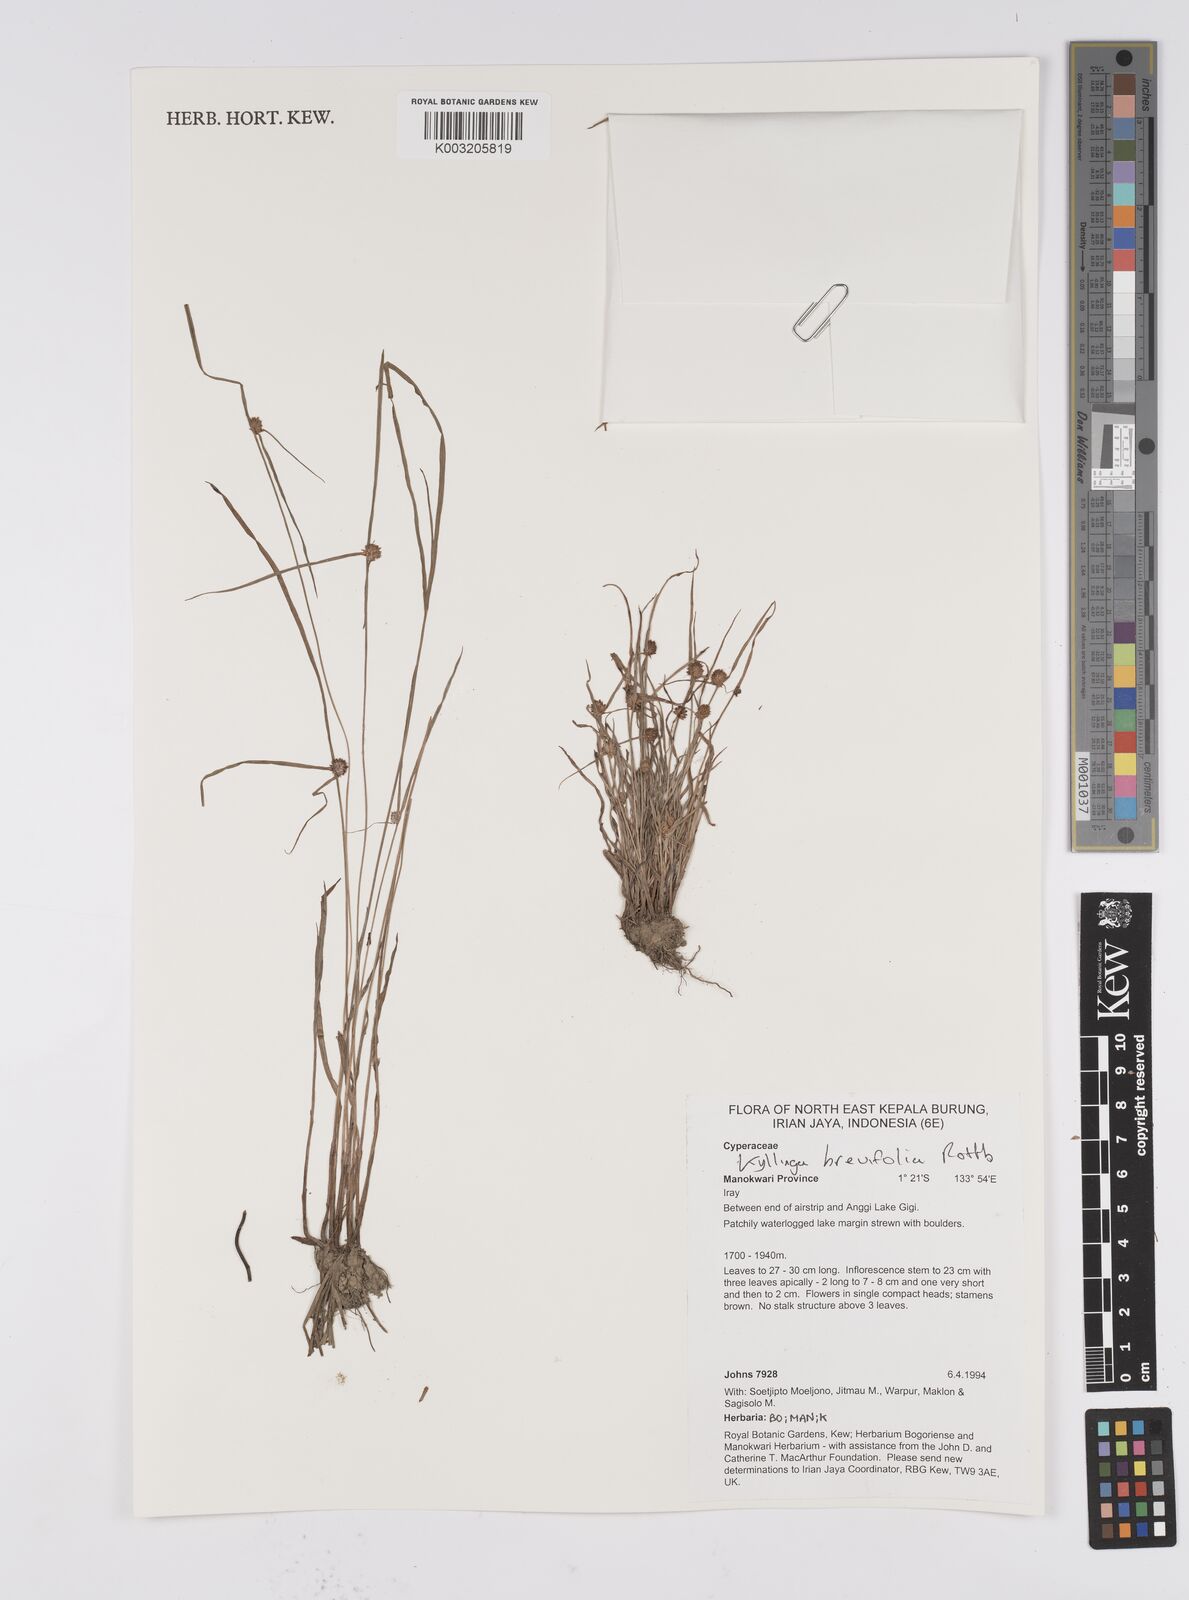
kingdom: Plantae
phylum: Tracheophyta
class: Liliopsida
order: Poales
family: Cyperaceae
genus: Cyperus
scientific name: Cyperus brevifolius
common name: Globe kyllinga
